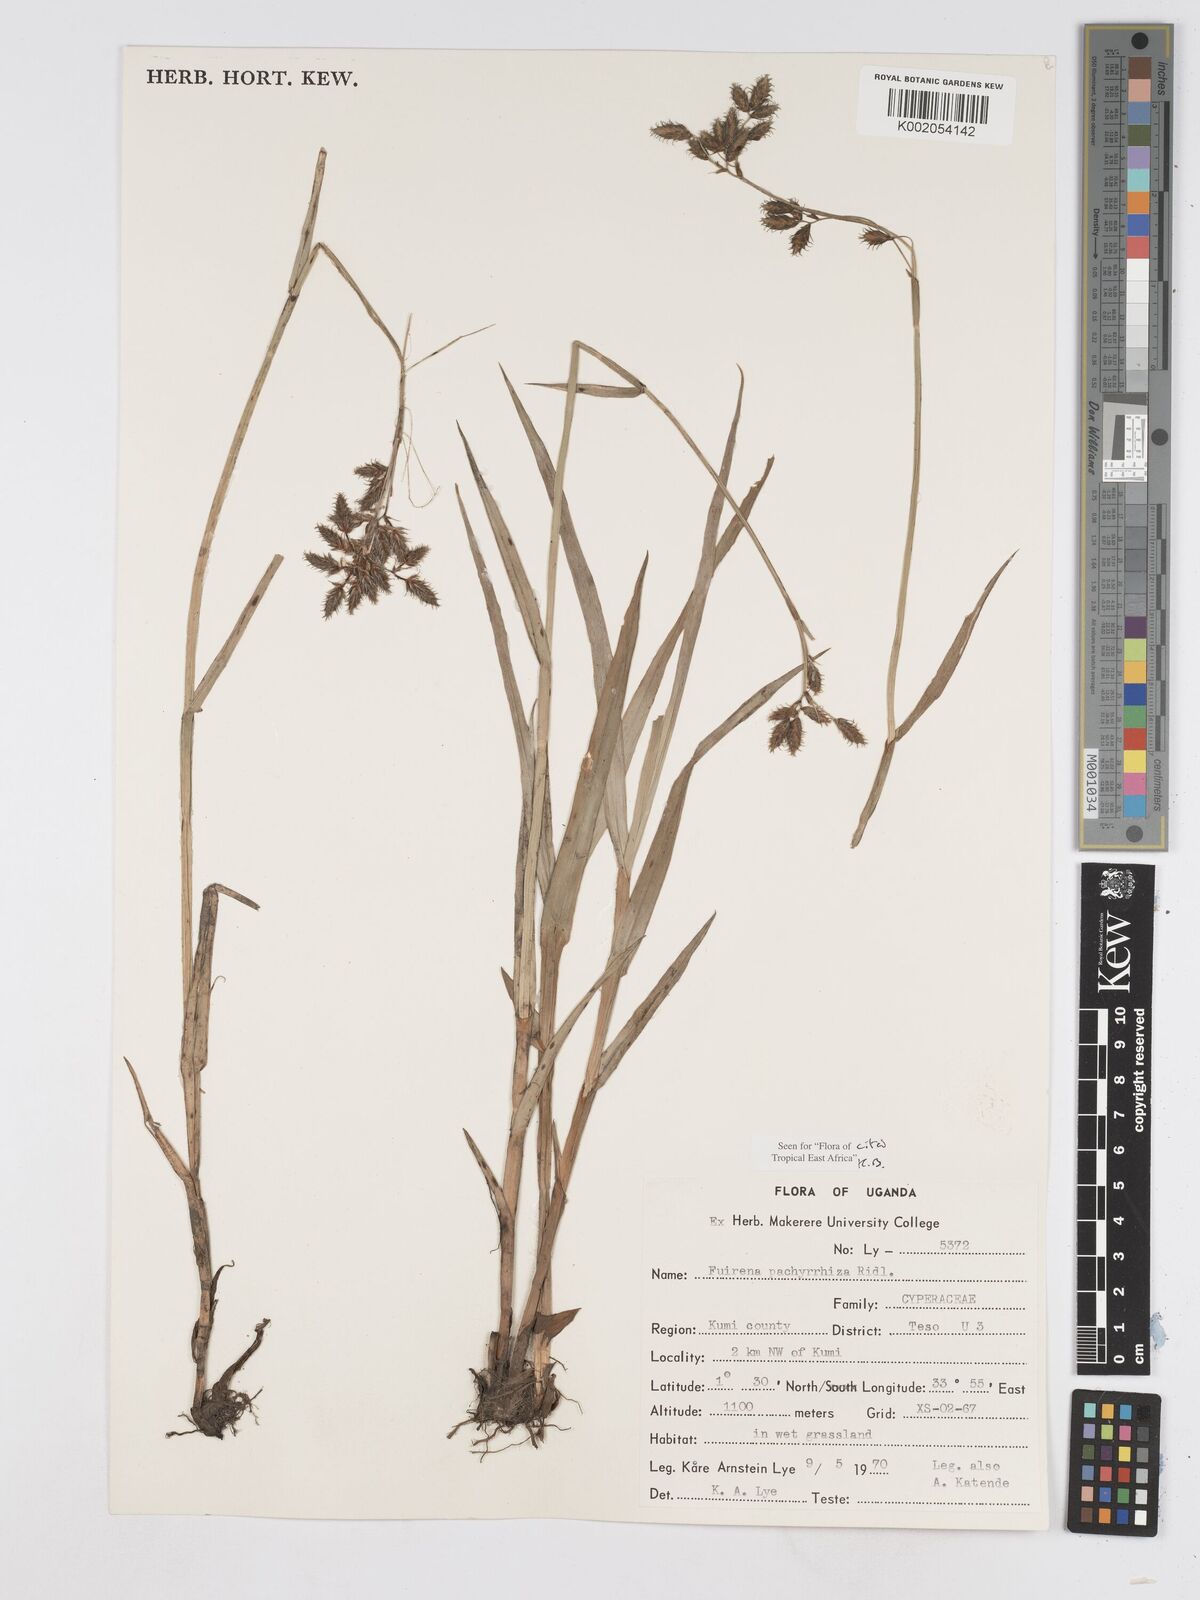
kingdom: Plantae
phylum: Tracheophyta
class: Liliopsida
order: Poales
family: Cyperaceae
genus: Fuirena
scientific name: Fuirena pachyrrhiza
